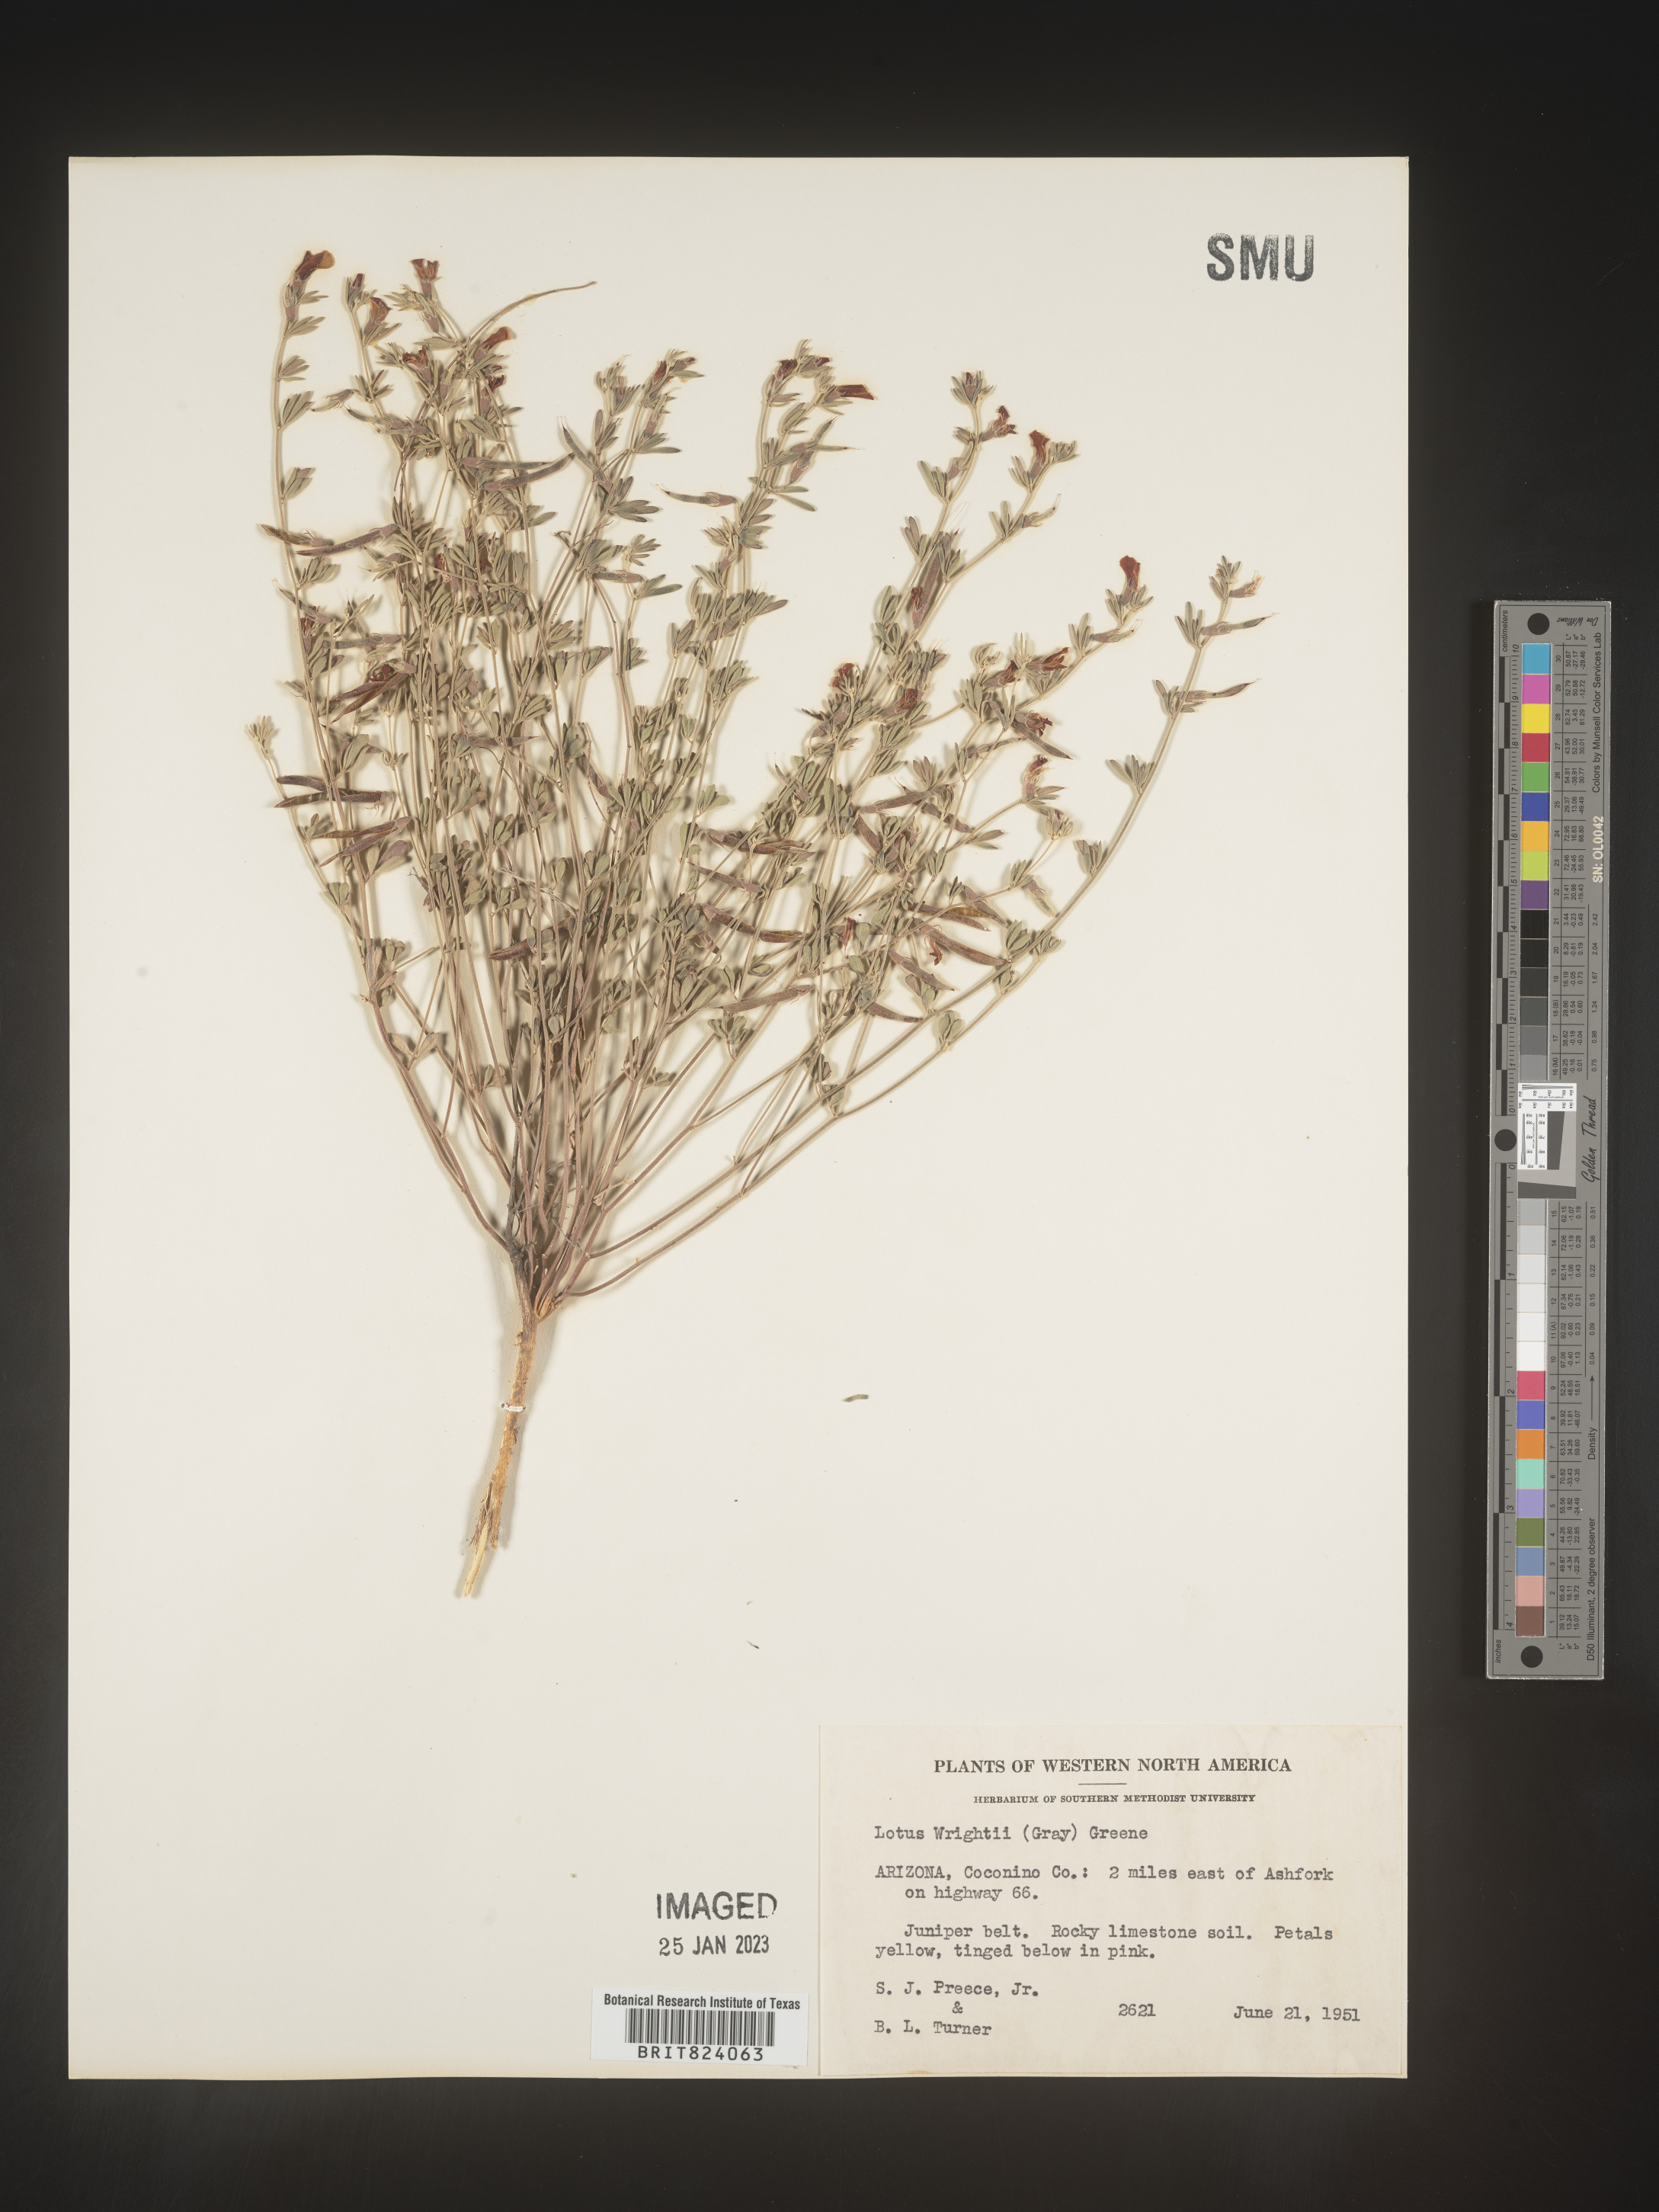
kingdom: Plantae
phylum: Tracheophyta
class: Magnoliopsida
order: Fabales
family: Fabaceae
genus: Acmispon
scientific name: Acmispon wrightii
